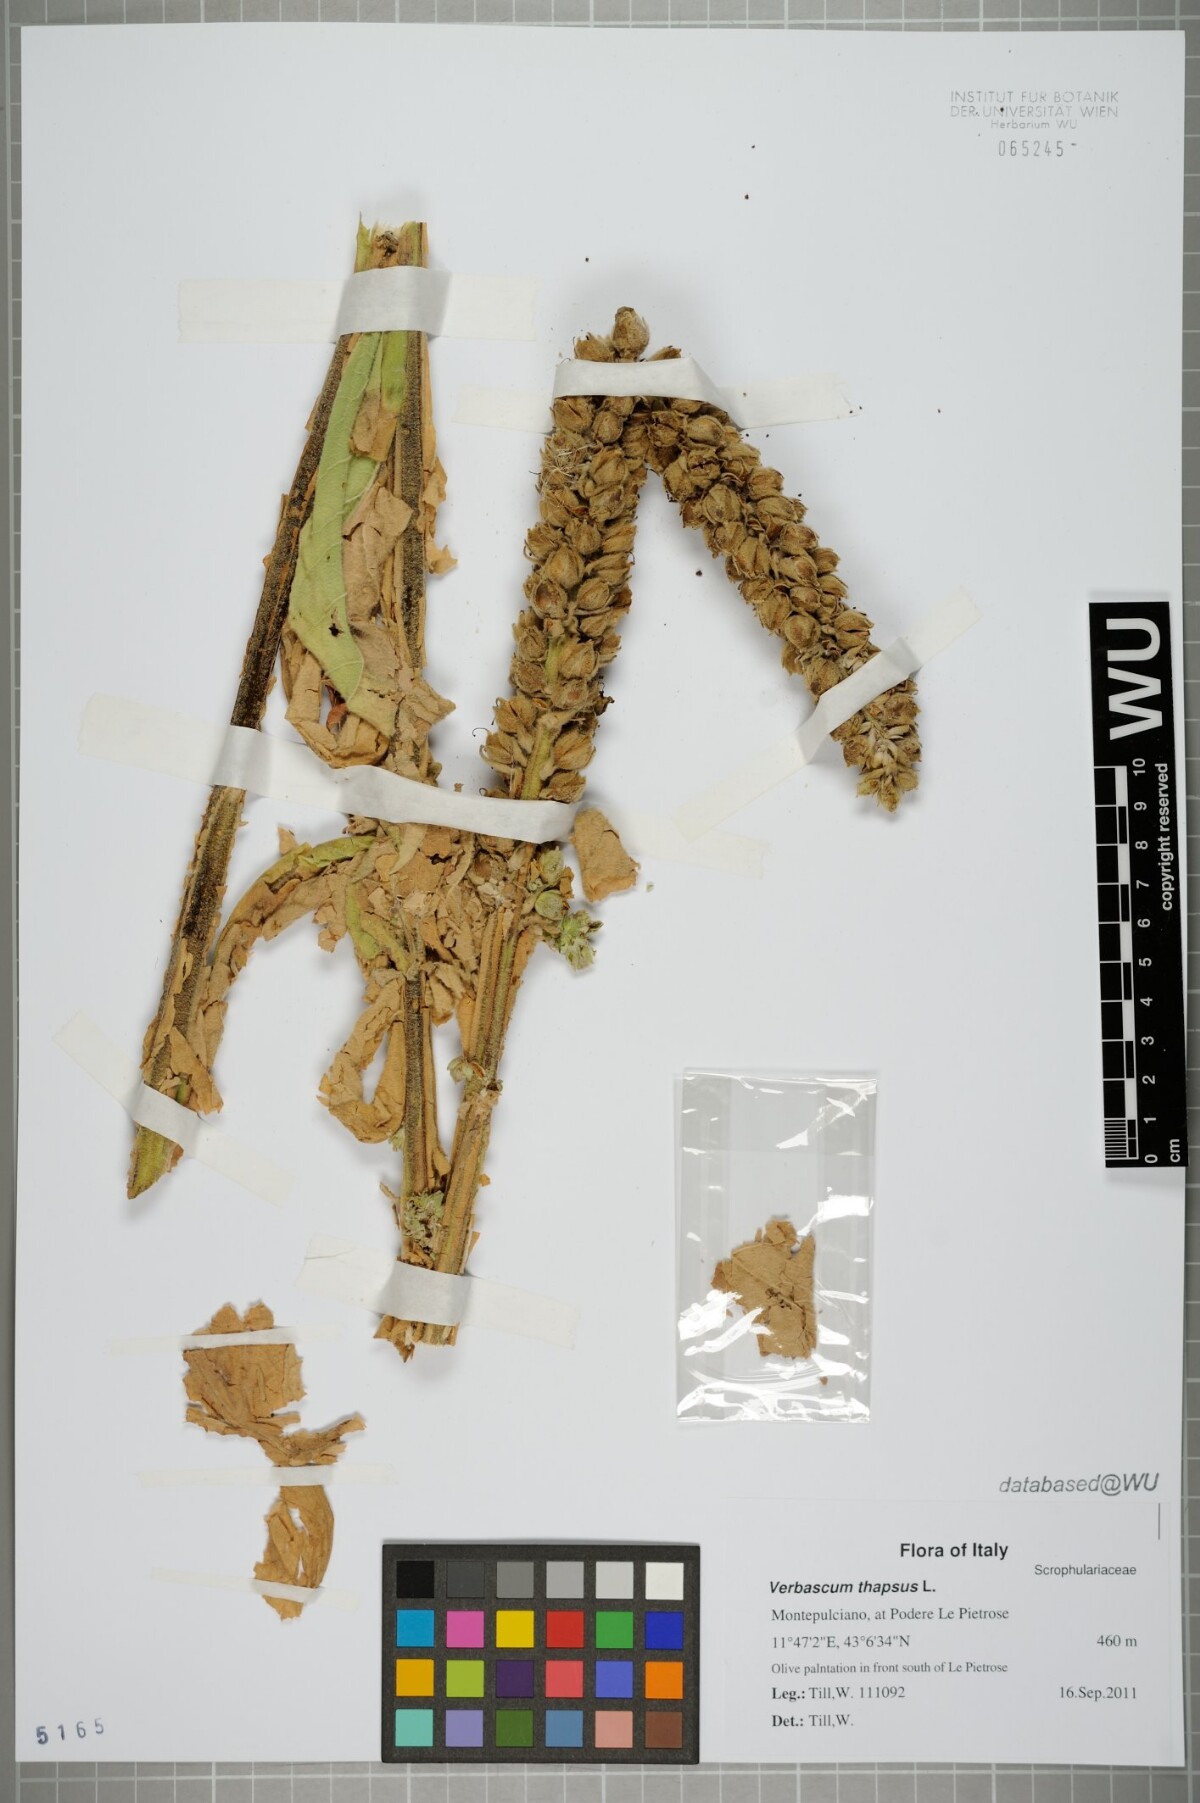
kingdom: Plantae
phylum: Tracheophyta
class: Magnoliopsida
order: Lamiales
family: Scrophulariaceae
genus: Verbascum
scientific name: Verbascum thapsus
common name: Common mullein
